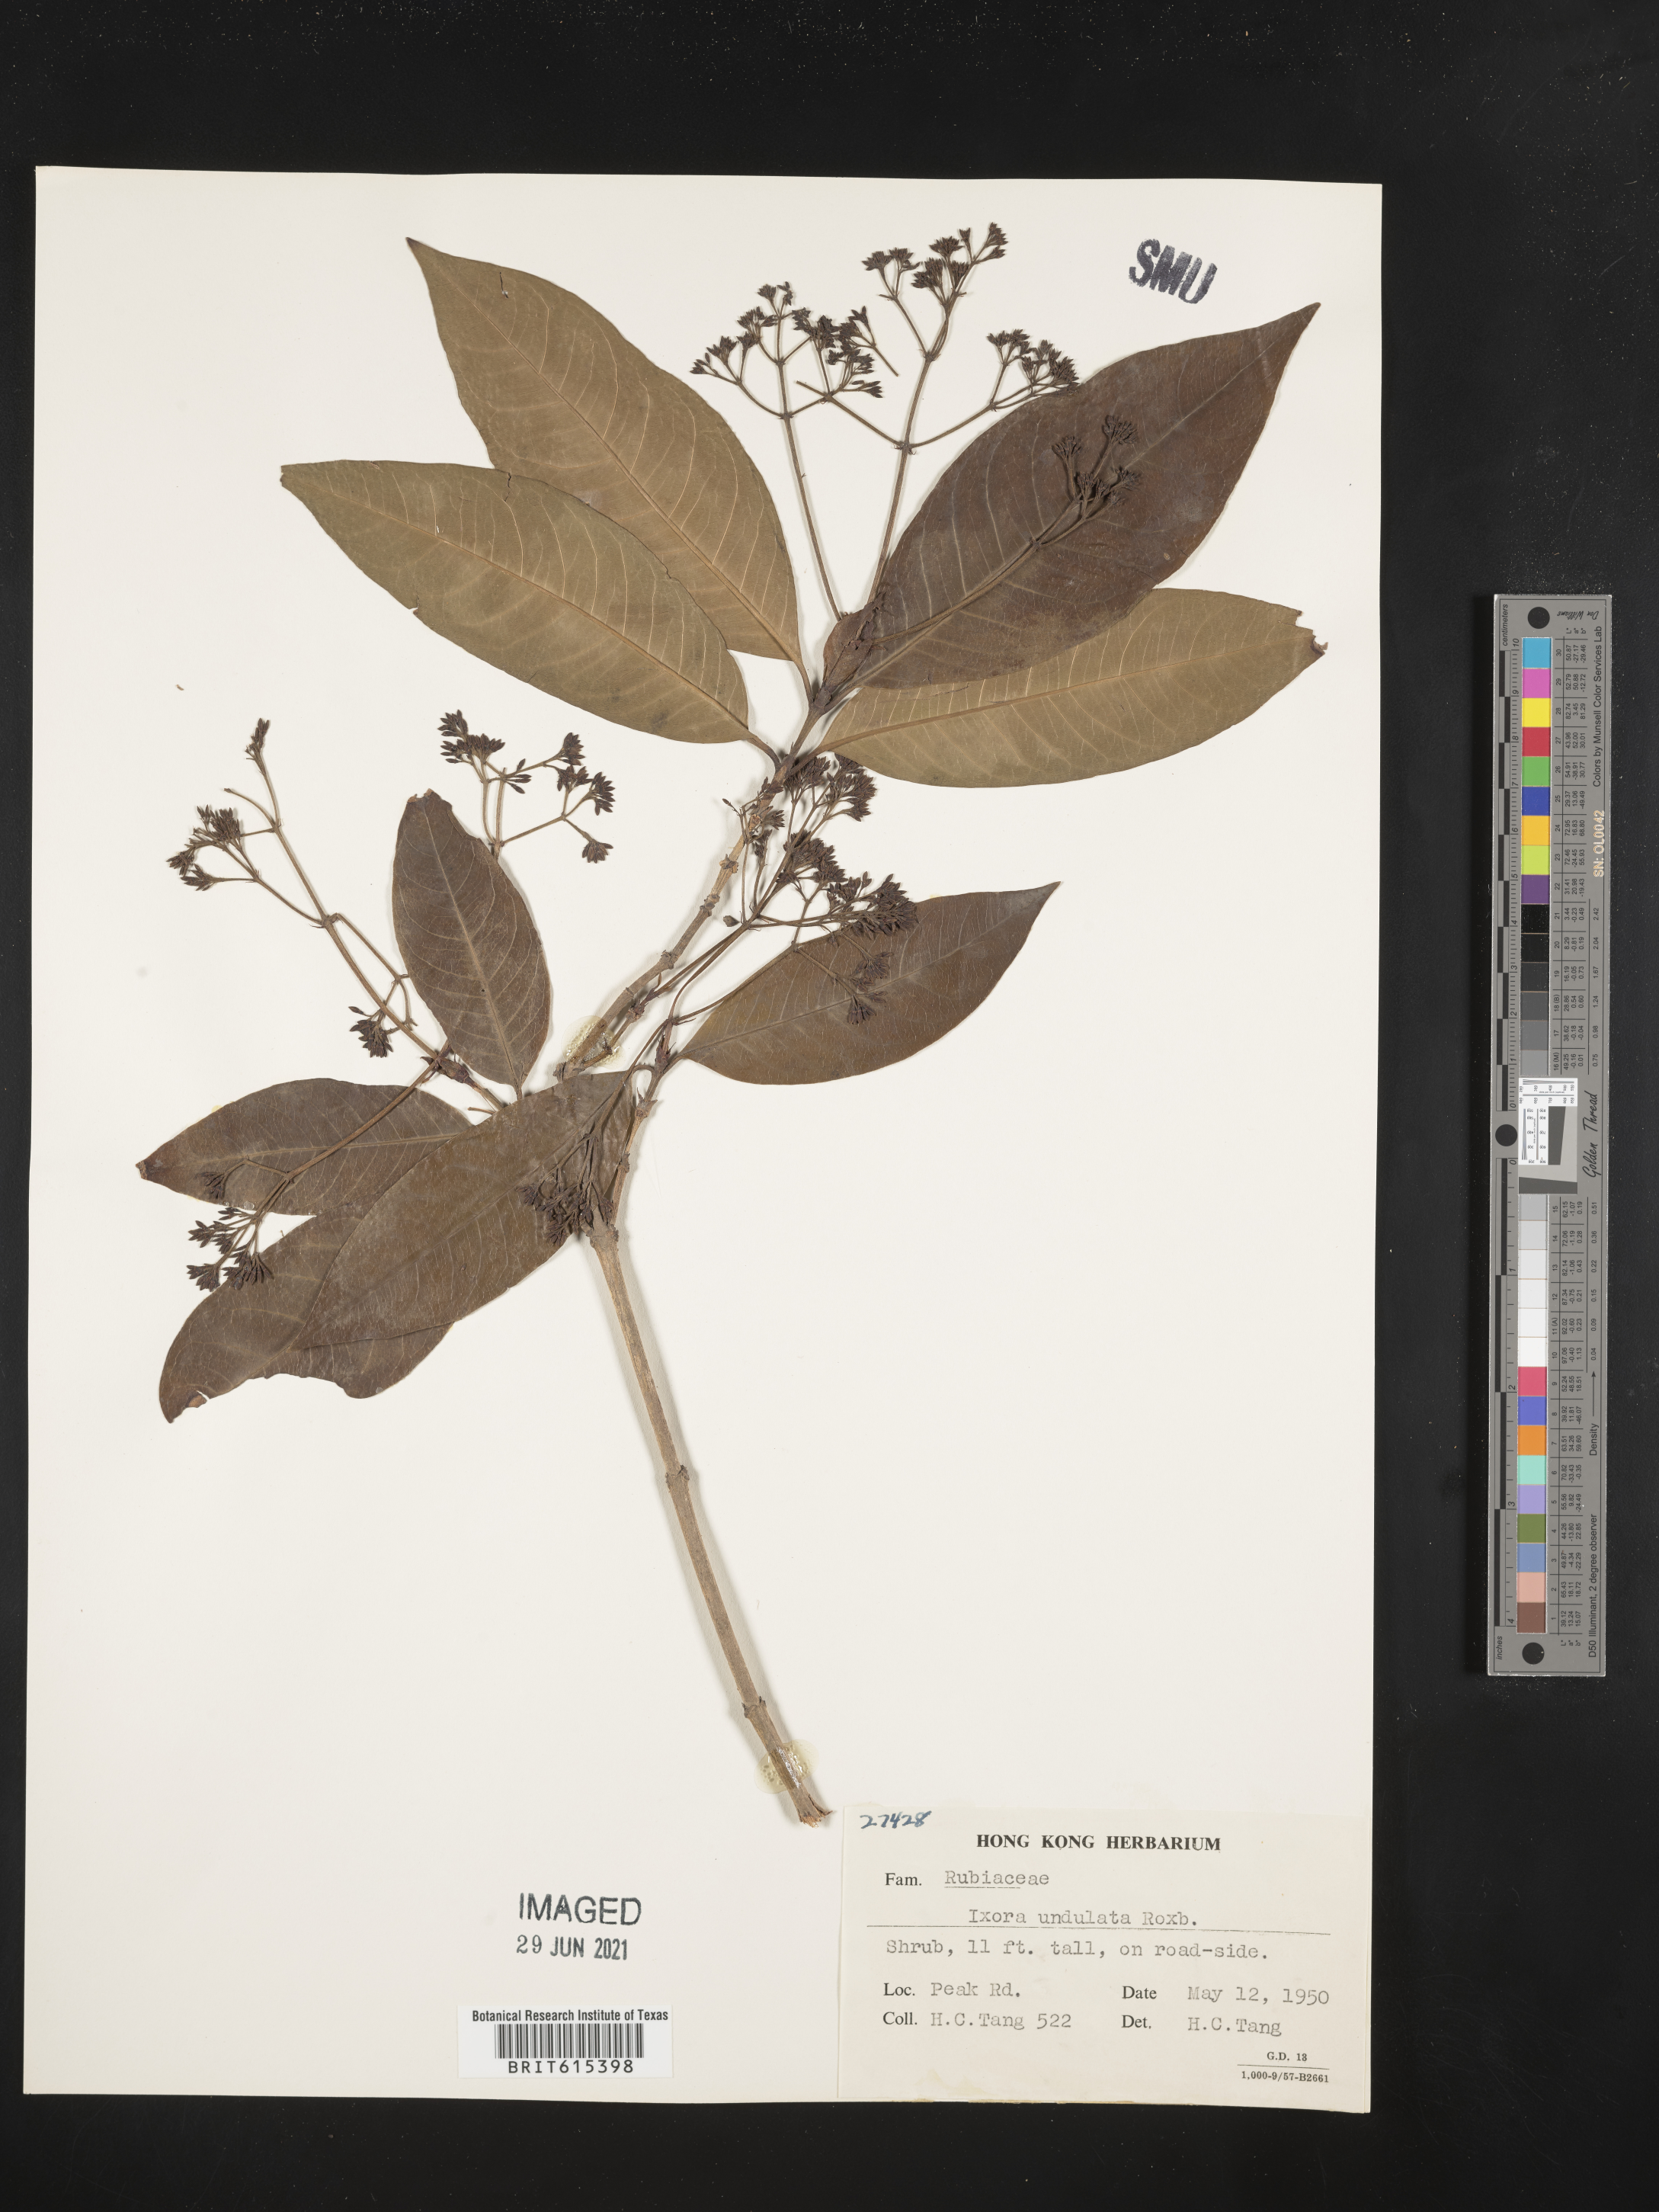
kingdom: Plantae
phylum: Tracheophyta
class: Magnoliopsida
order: Gentianales
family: Rubiaceae
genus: Ixora
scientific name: Ixora undulata
